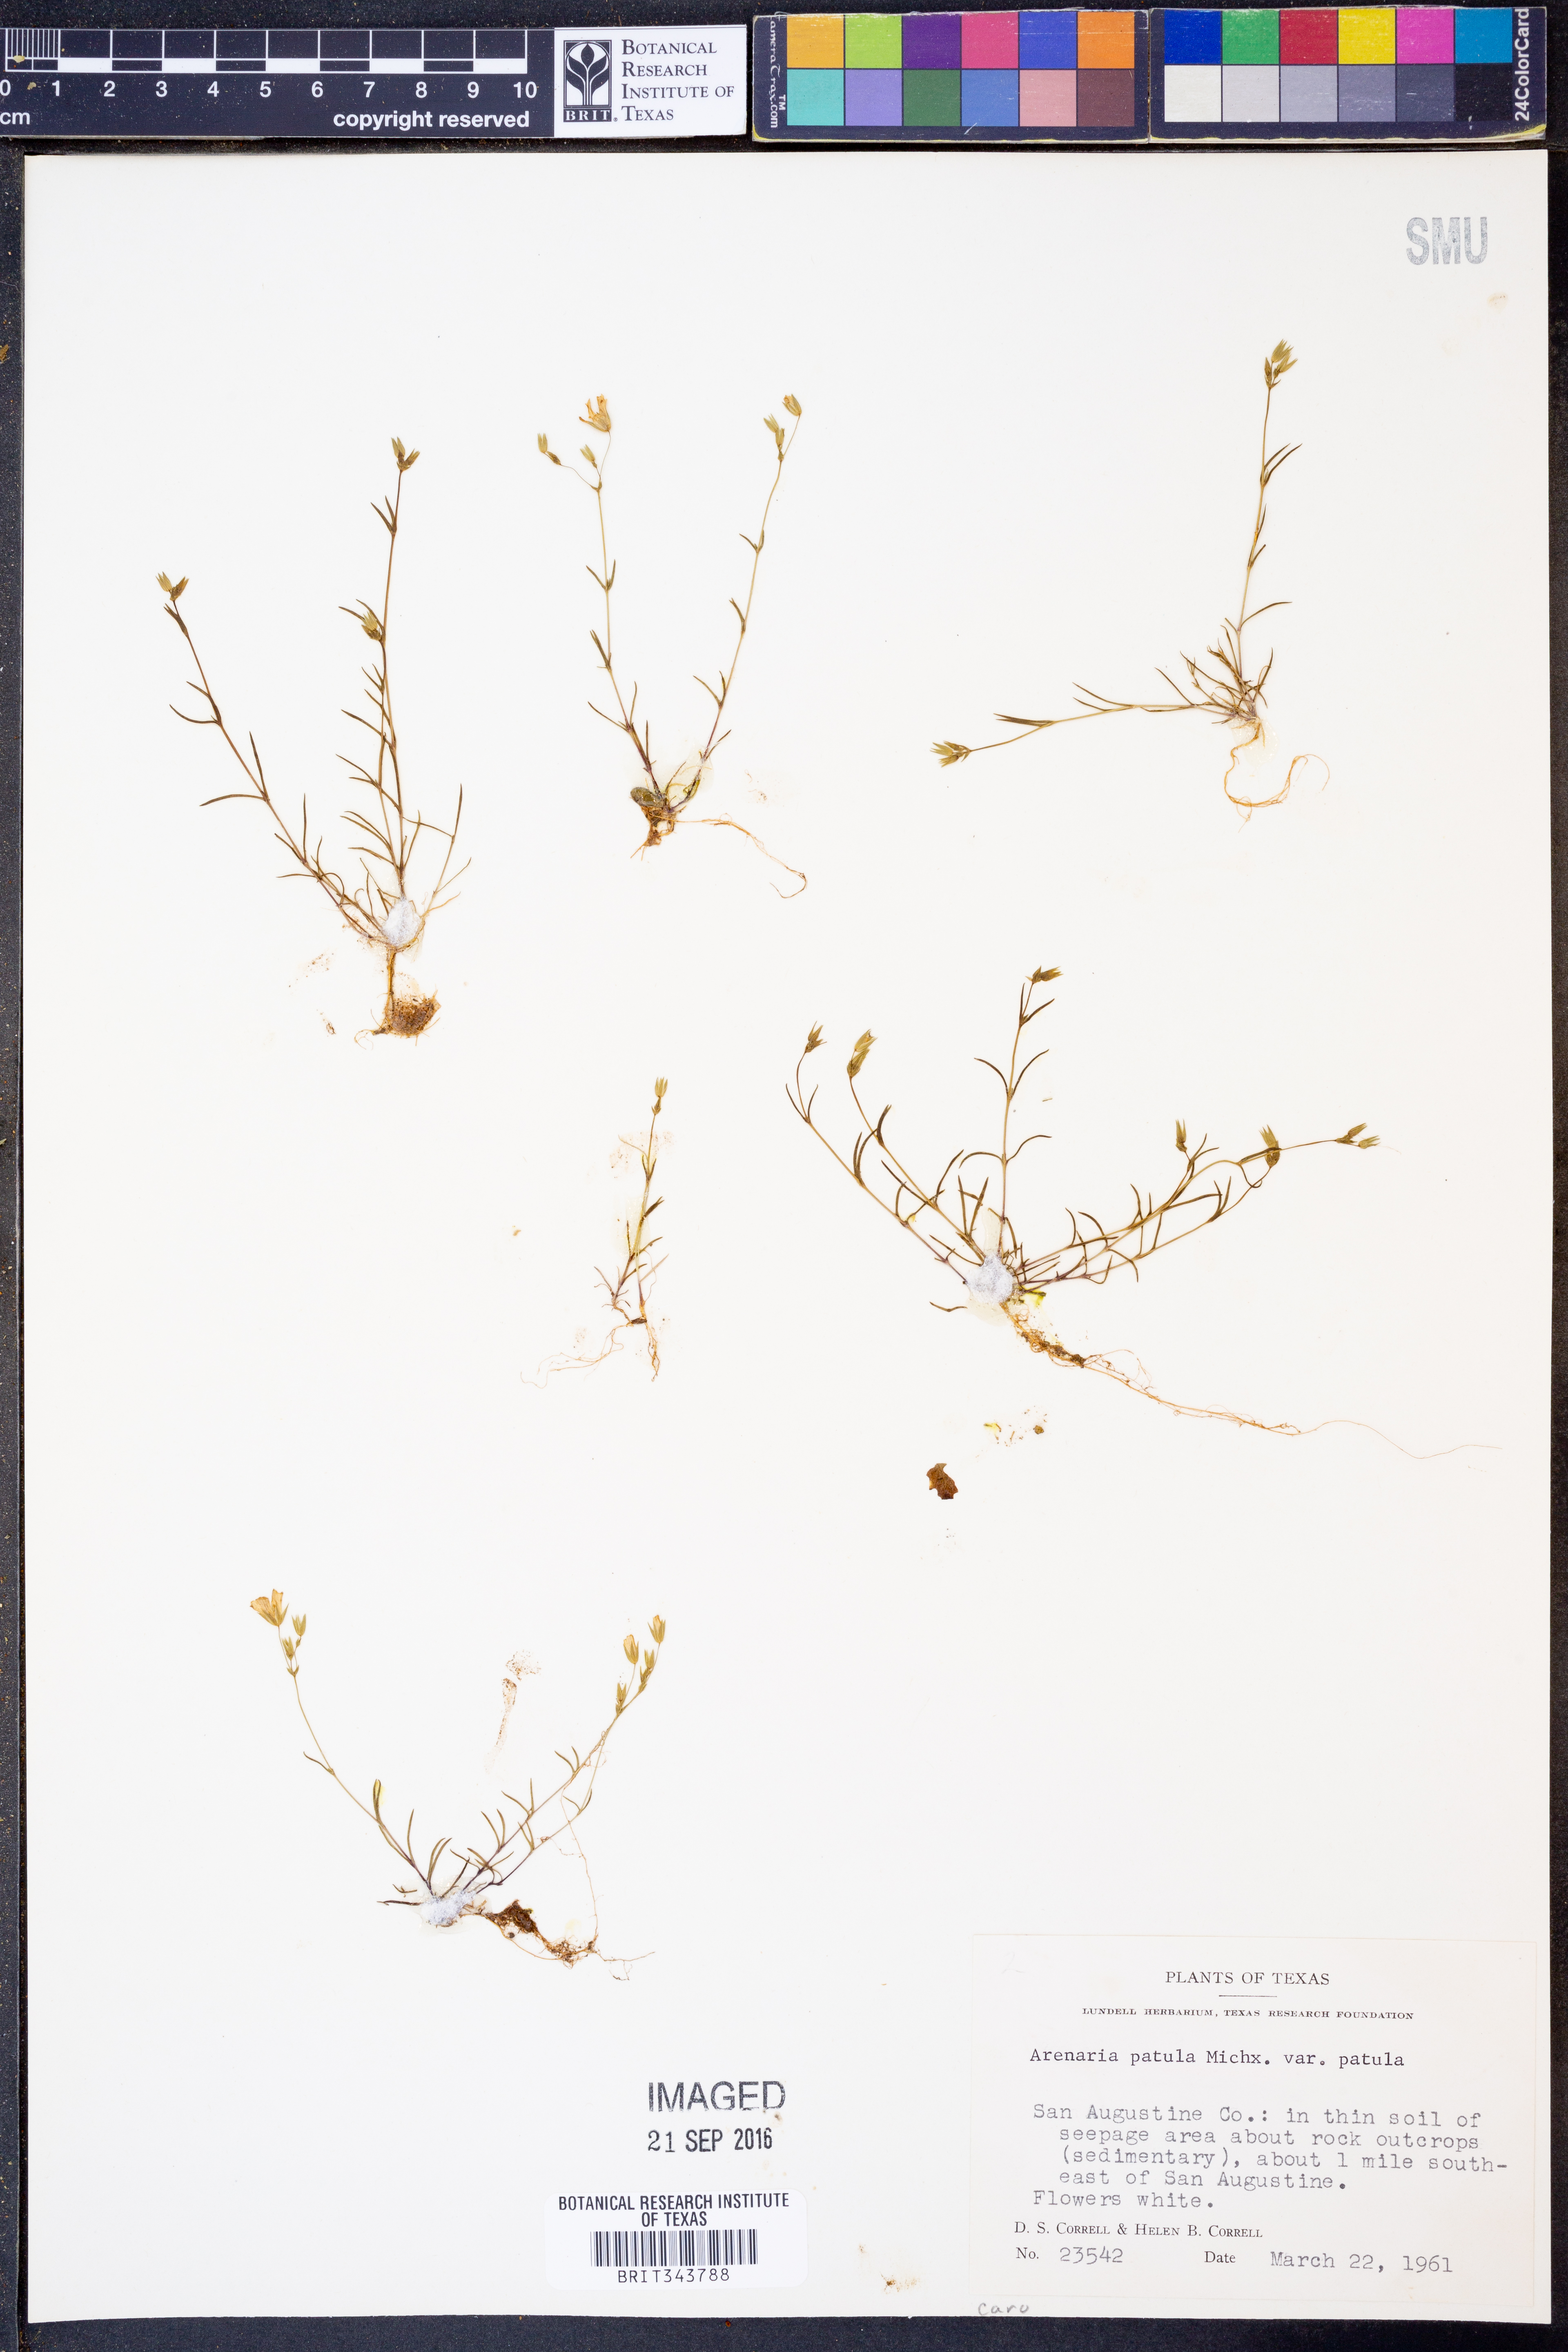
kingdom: Plantae
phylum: Tracheophyta
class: Magnoliopsida
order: Caryophyllales
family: Caryophyllaceae
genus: Mononeuria
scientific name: Mononeuria patula
